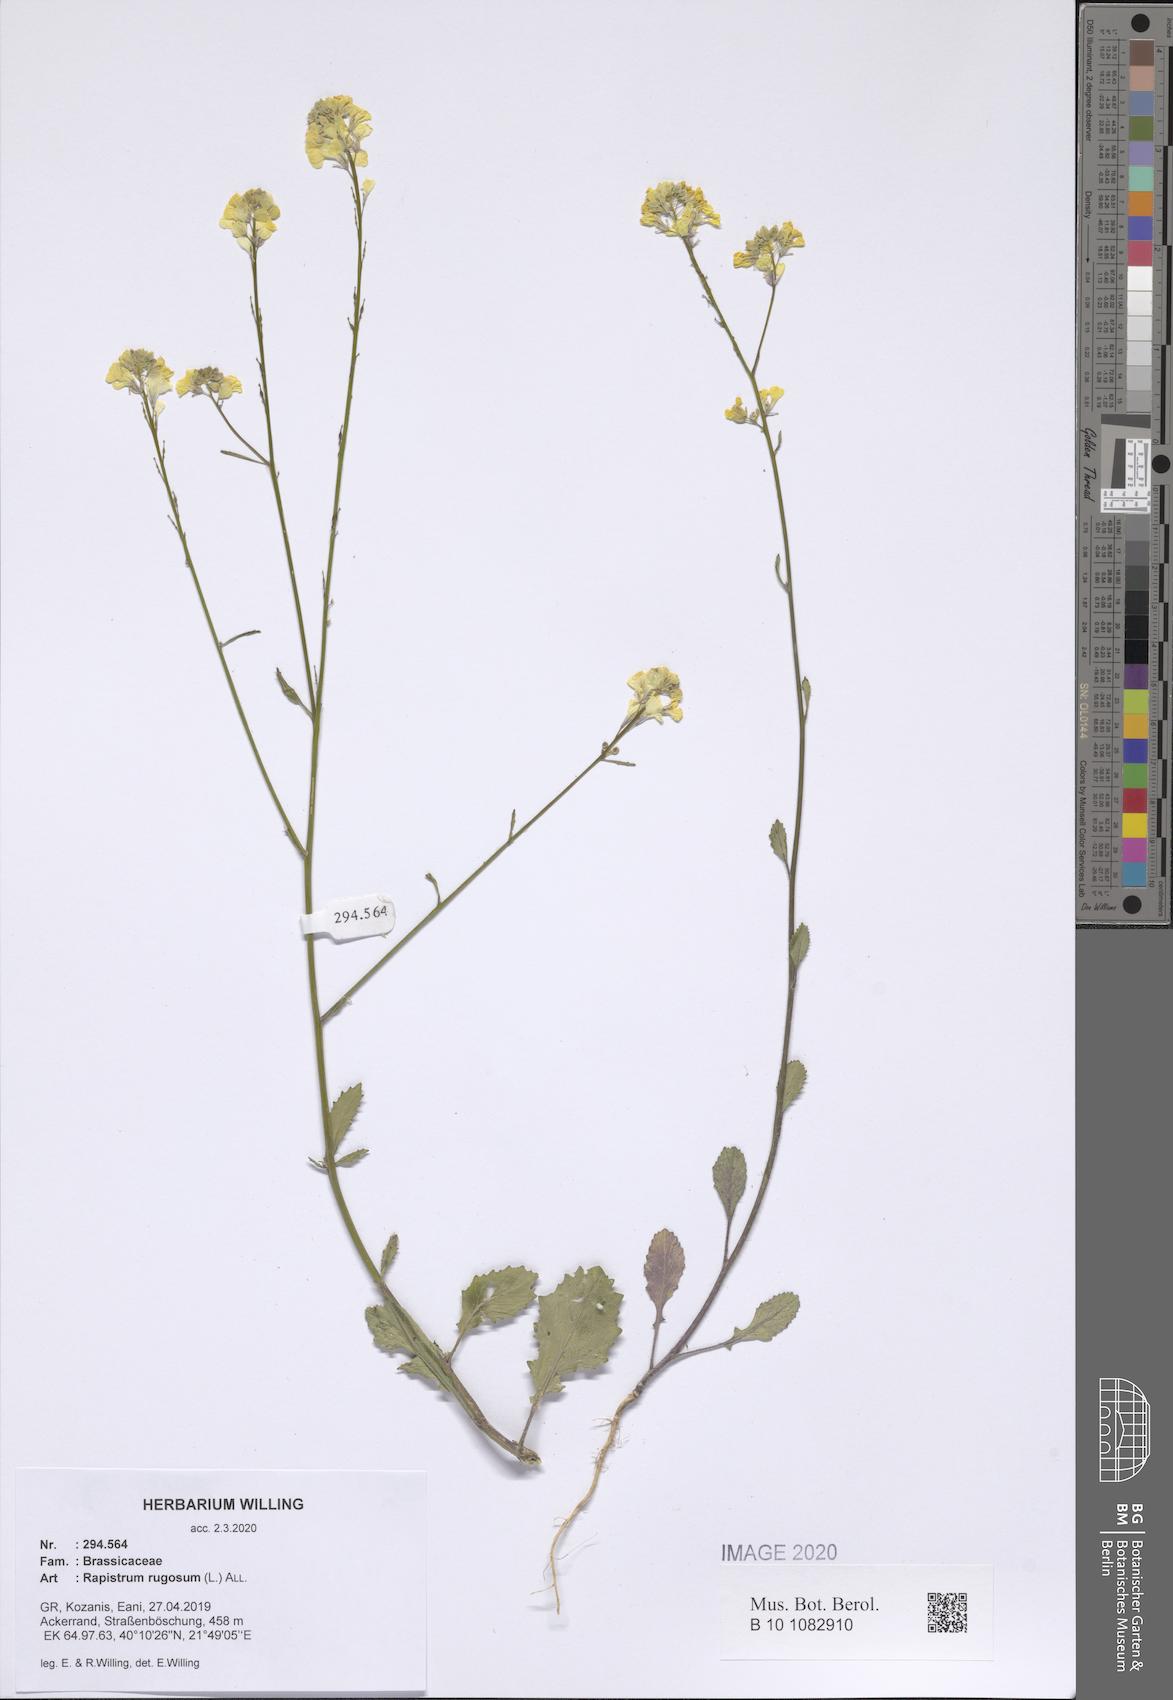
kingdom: Plantae
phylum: Tracheophyta
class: Magnoliopsida
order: Brassicales
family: Brassicaceae
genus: Rapistrum
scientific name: Rapistrum rugosum
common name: Annual bastardcabbage
